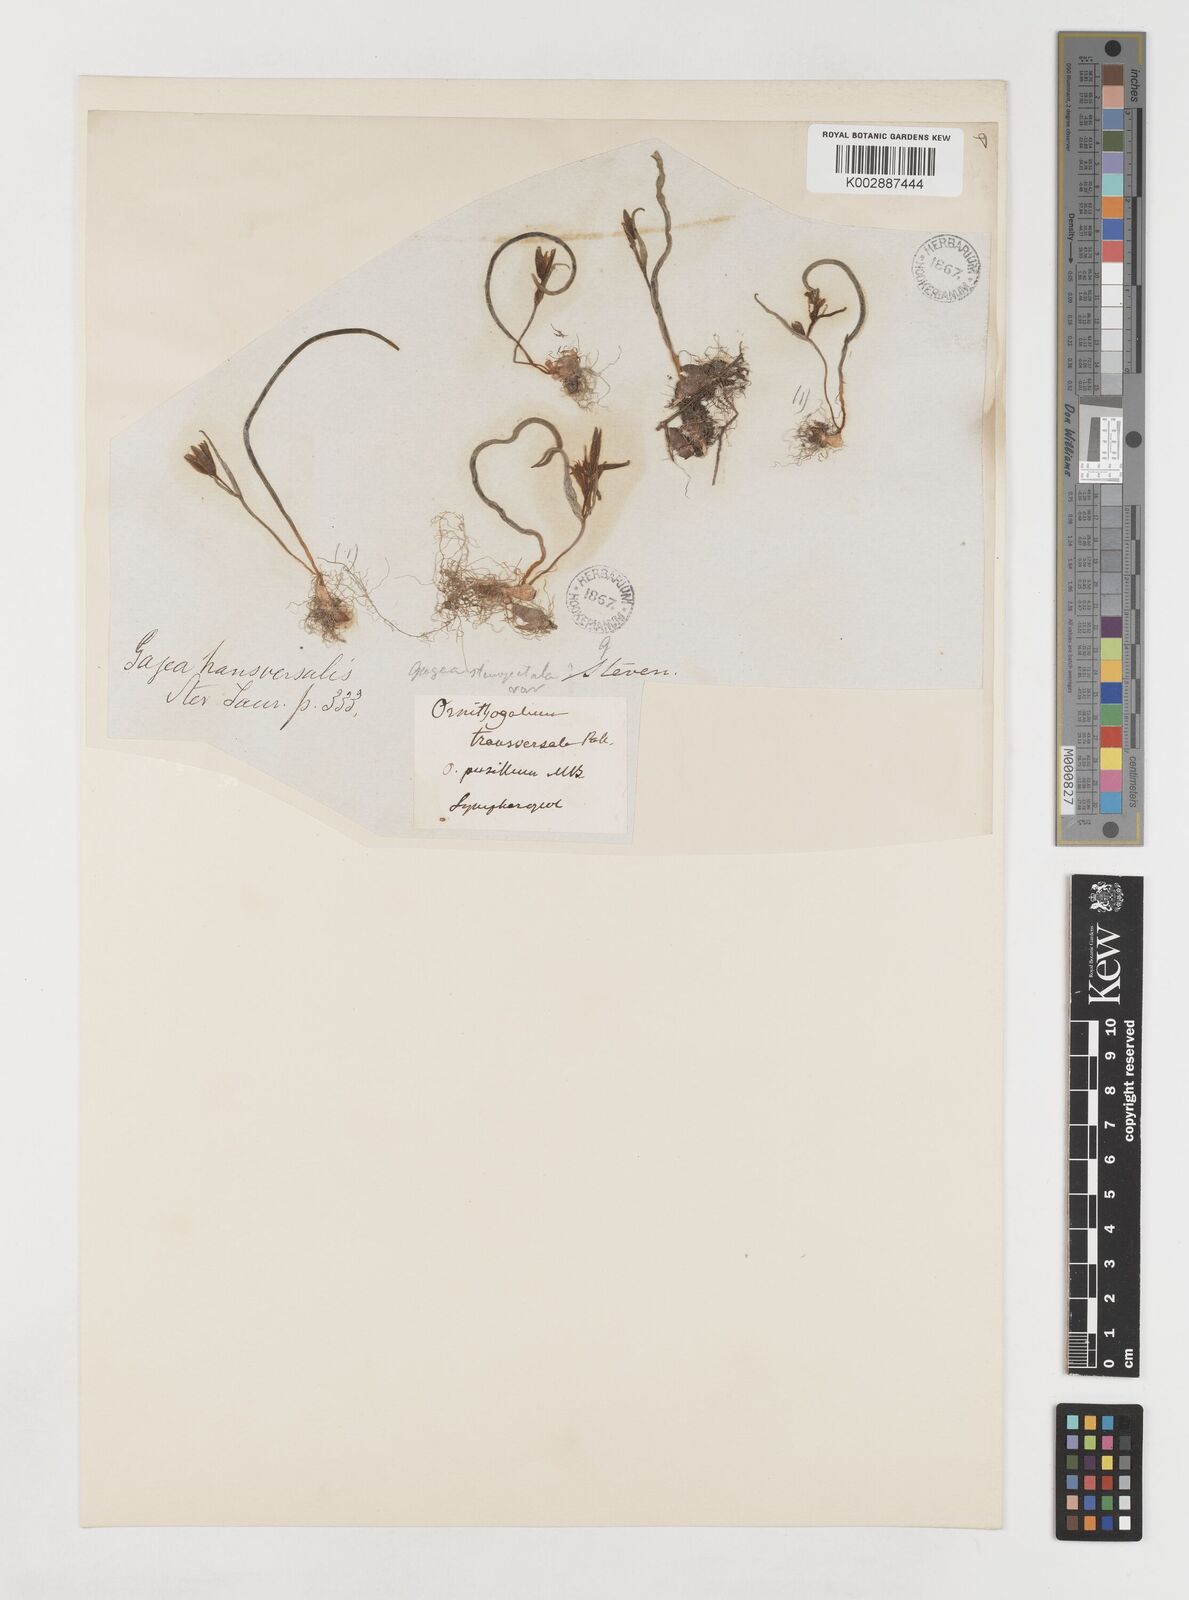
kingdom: Plantae
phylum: Tracheophyta
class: Liliopsida
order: Liliales
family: Liliaceae
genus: Gagea
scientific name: Gagea transversalis
